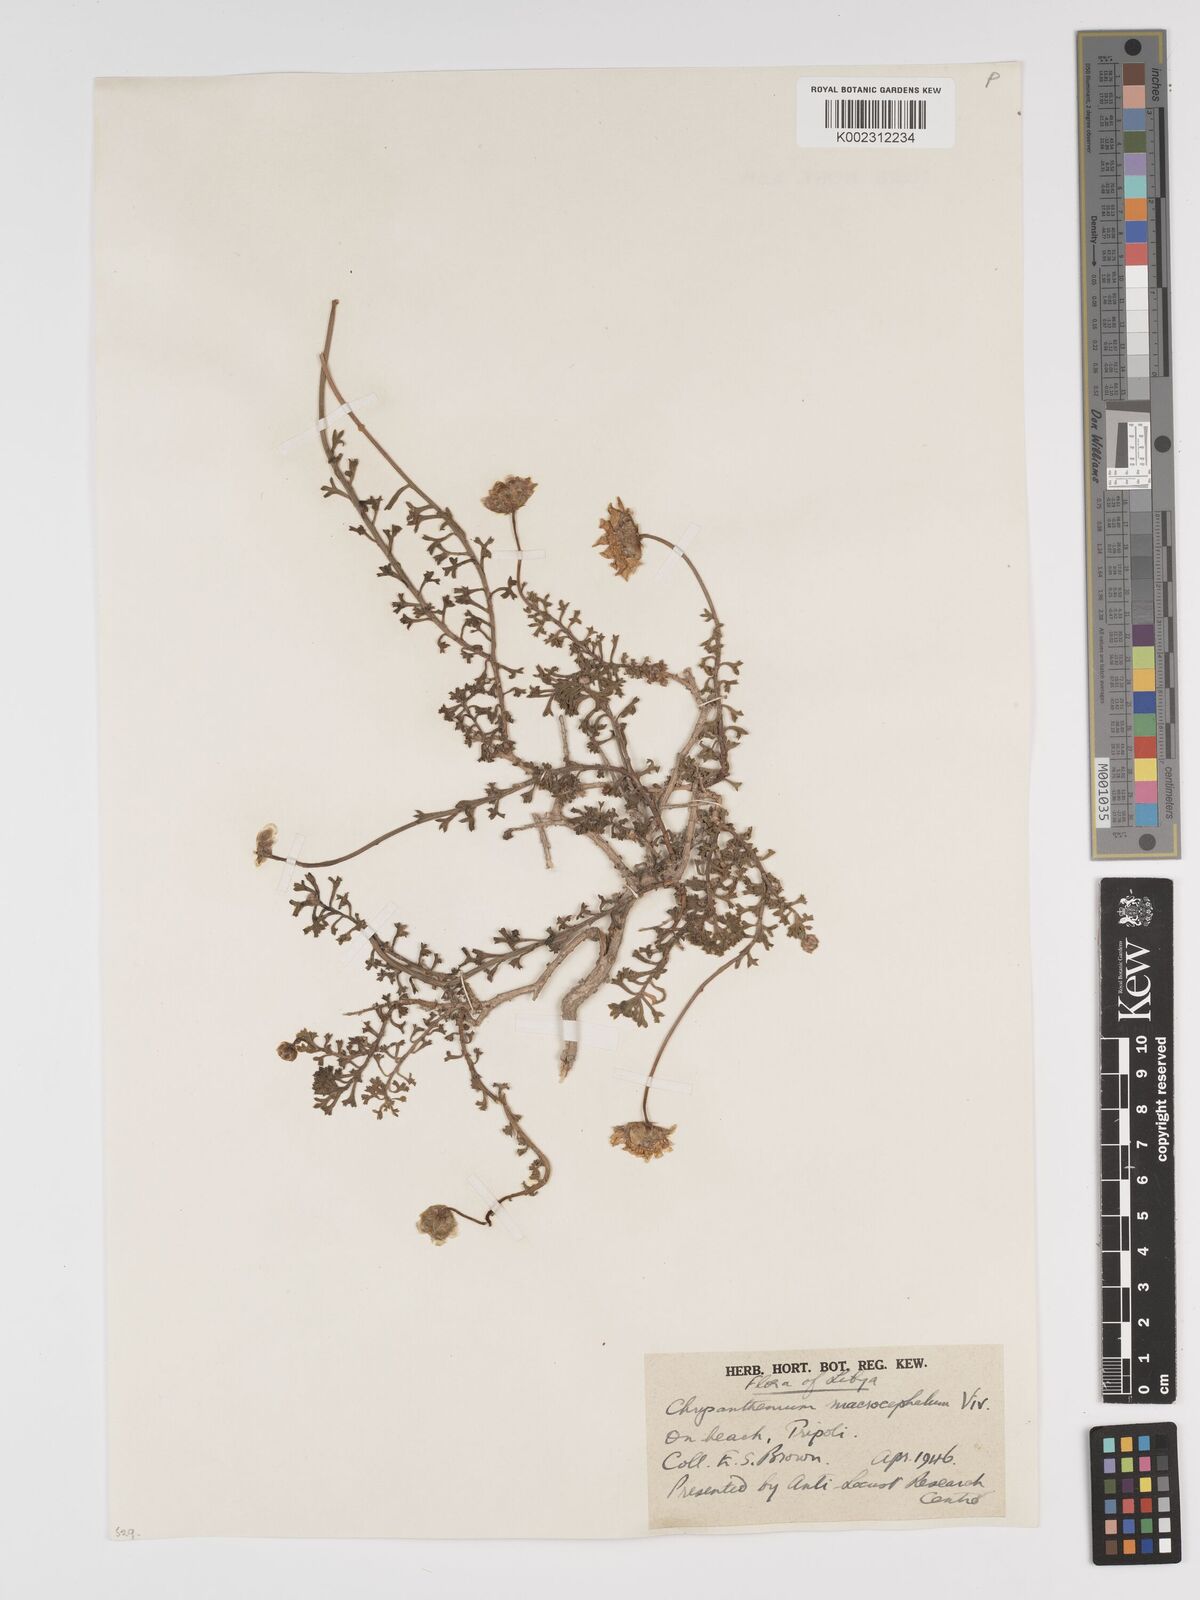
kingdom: Plantae
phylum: Tracheophyta
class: Magnoliopsida
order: Asterales
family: Asteraceae
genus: Tanacetum
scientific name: Tanacetum macrocephalum
